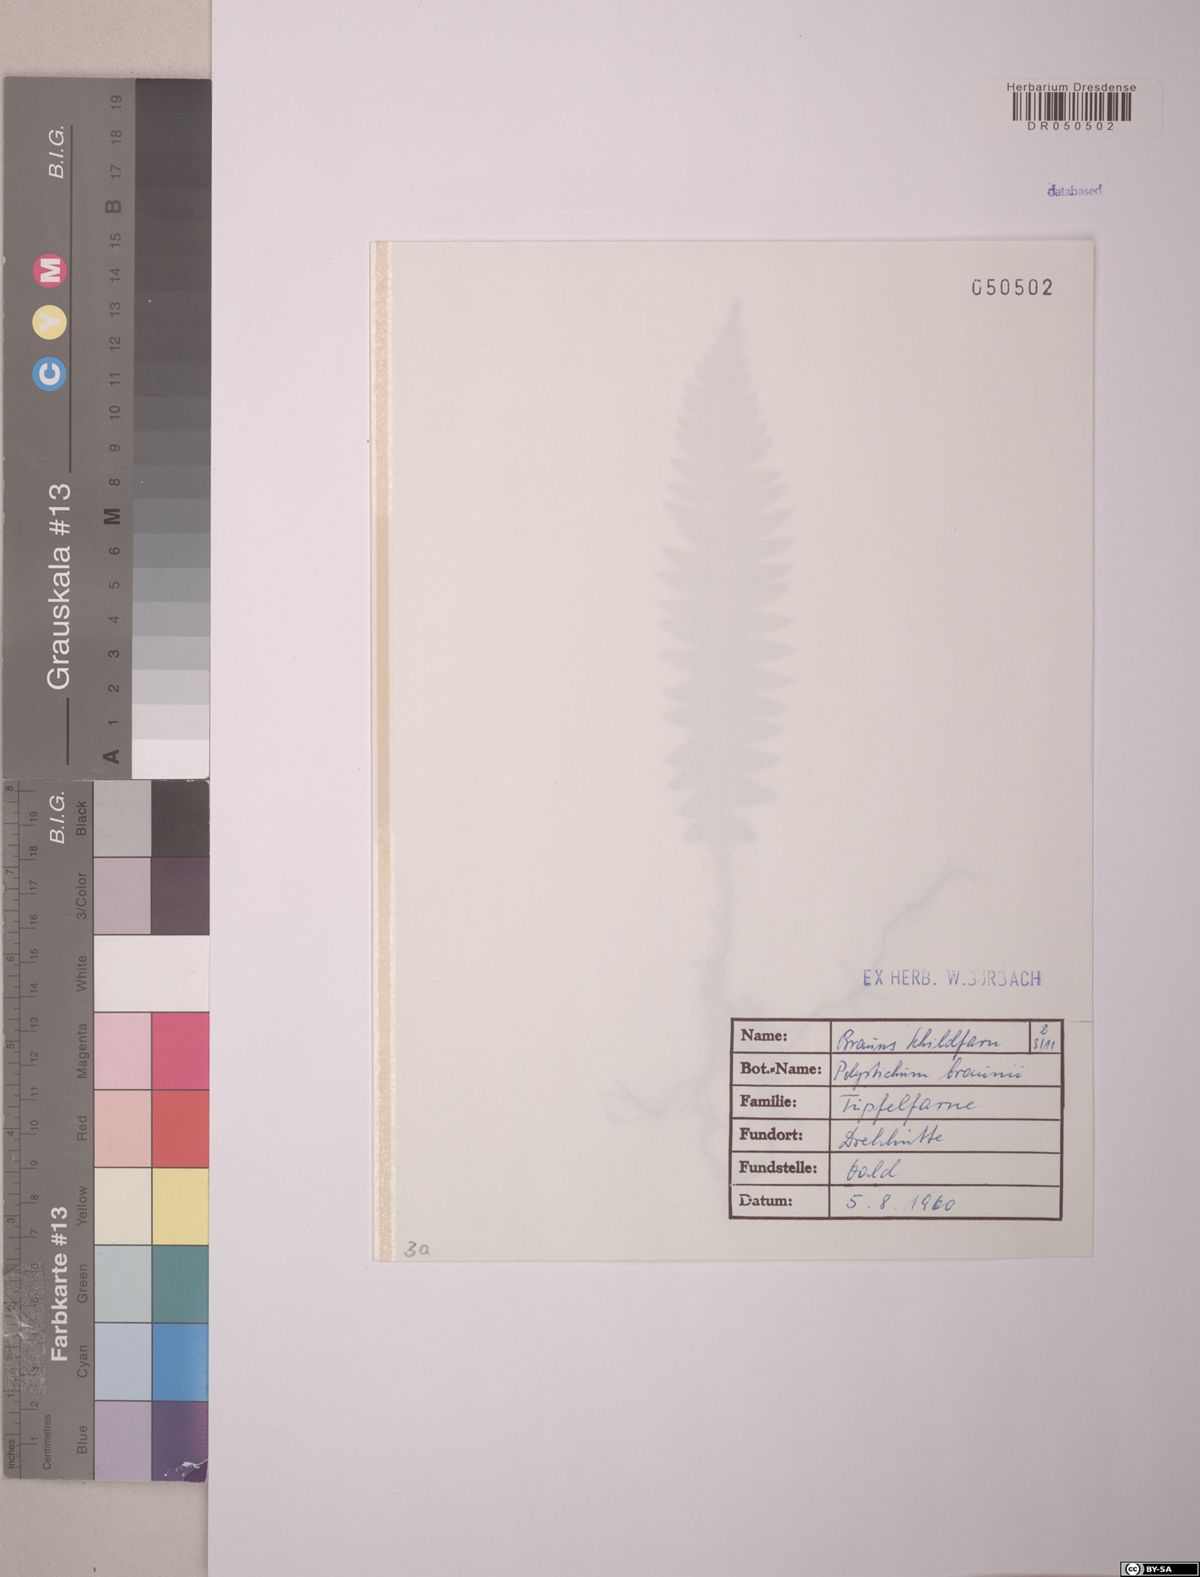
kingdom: Plantae
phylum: Tracheophyta
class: Polypodiopsida
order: Polypodiales
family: Dryopteridaceae
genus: Polystichum
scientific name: Polystichum braunii
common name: Braun's holly fern
